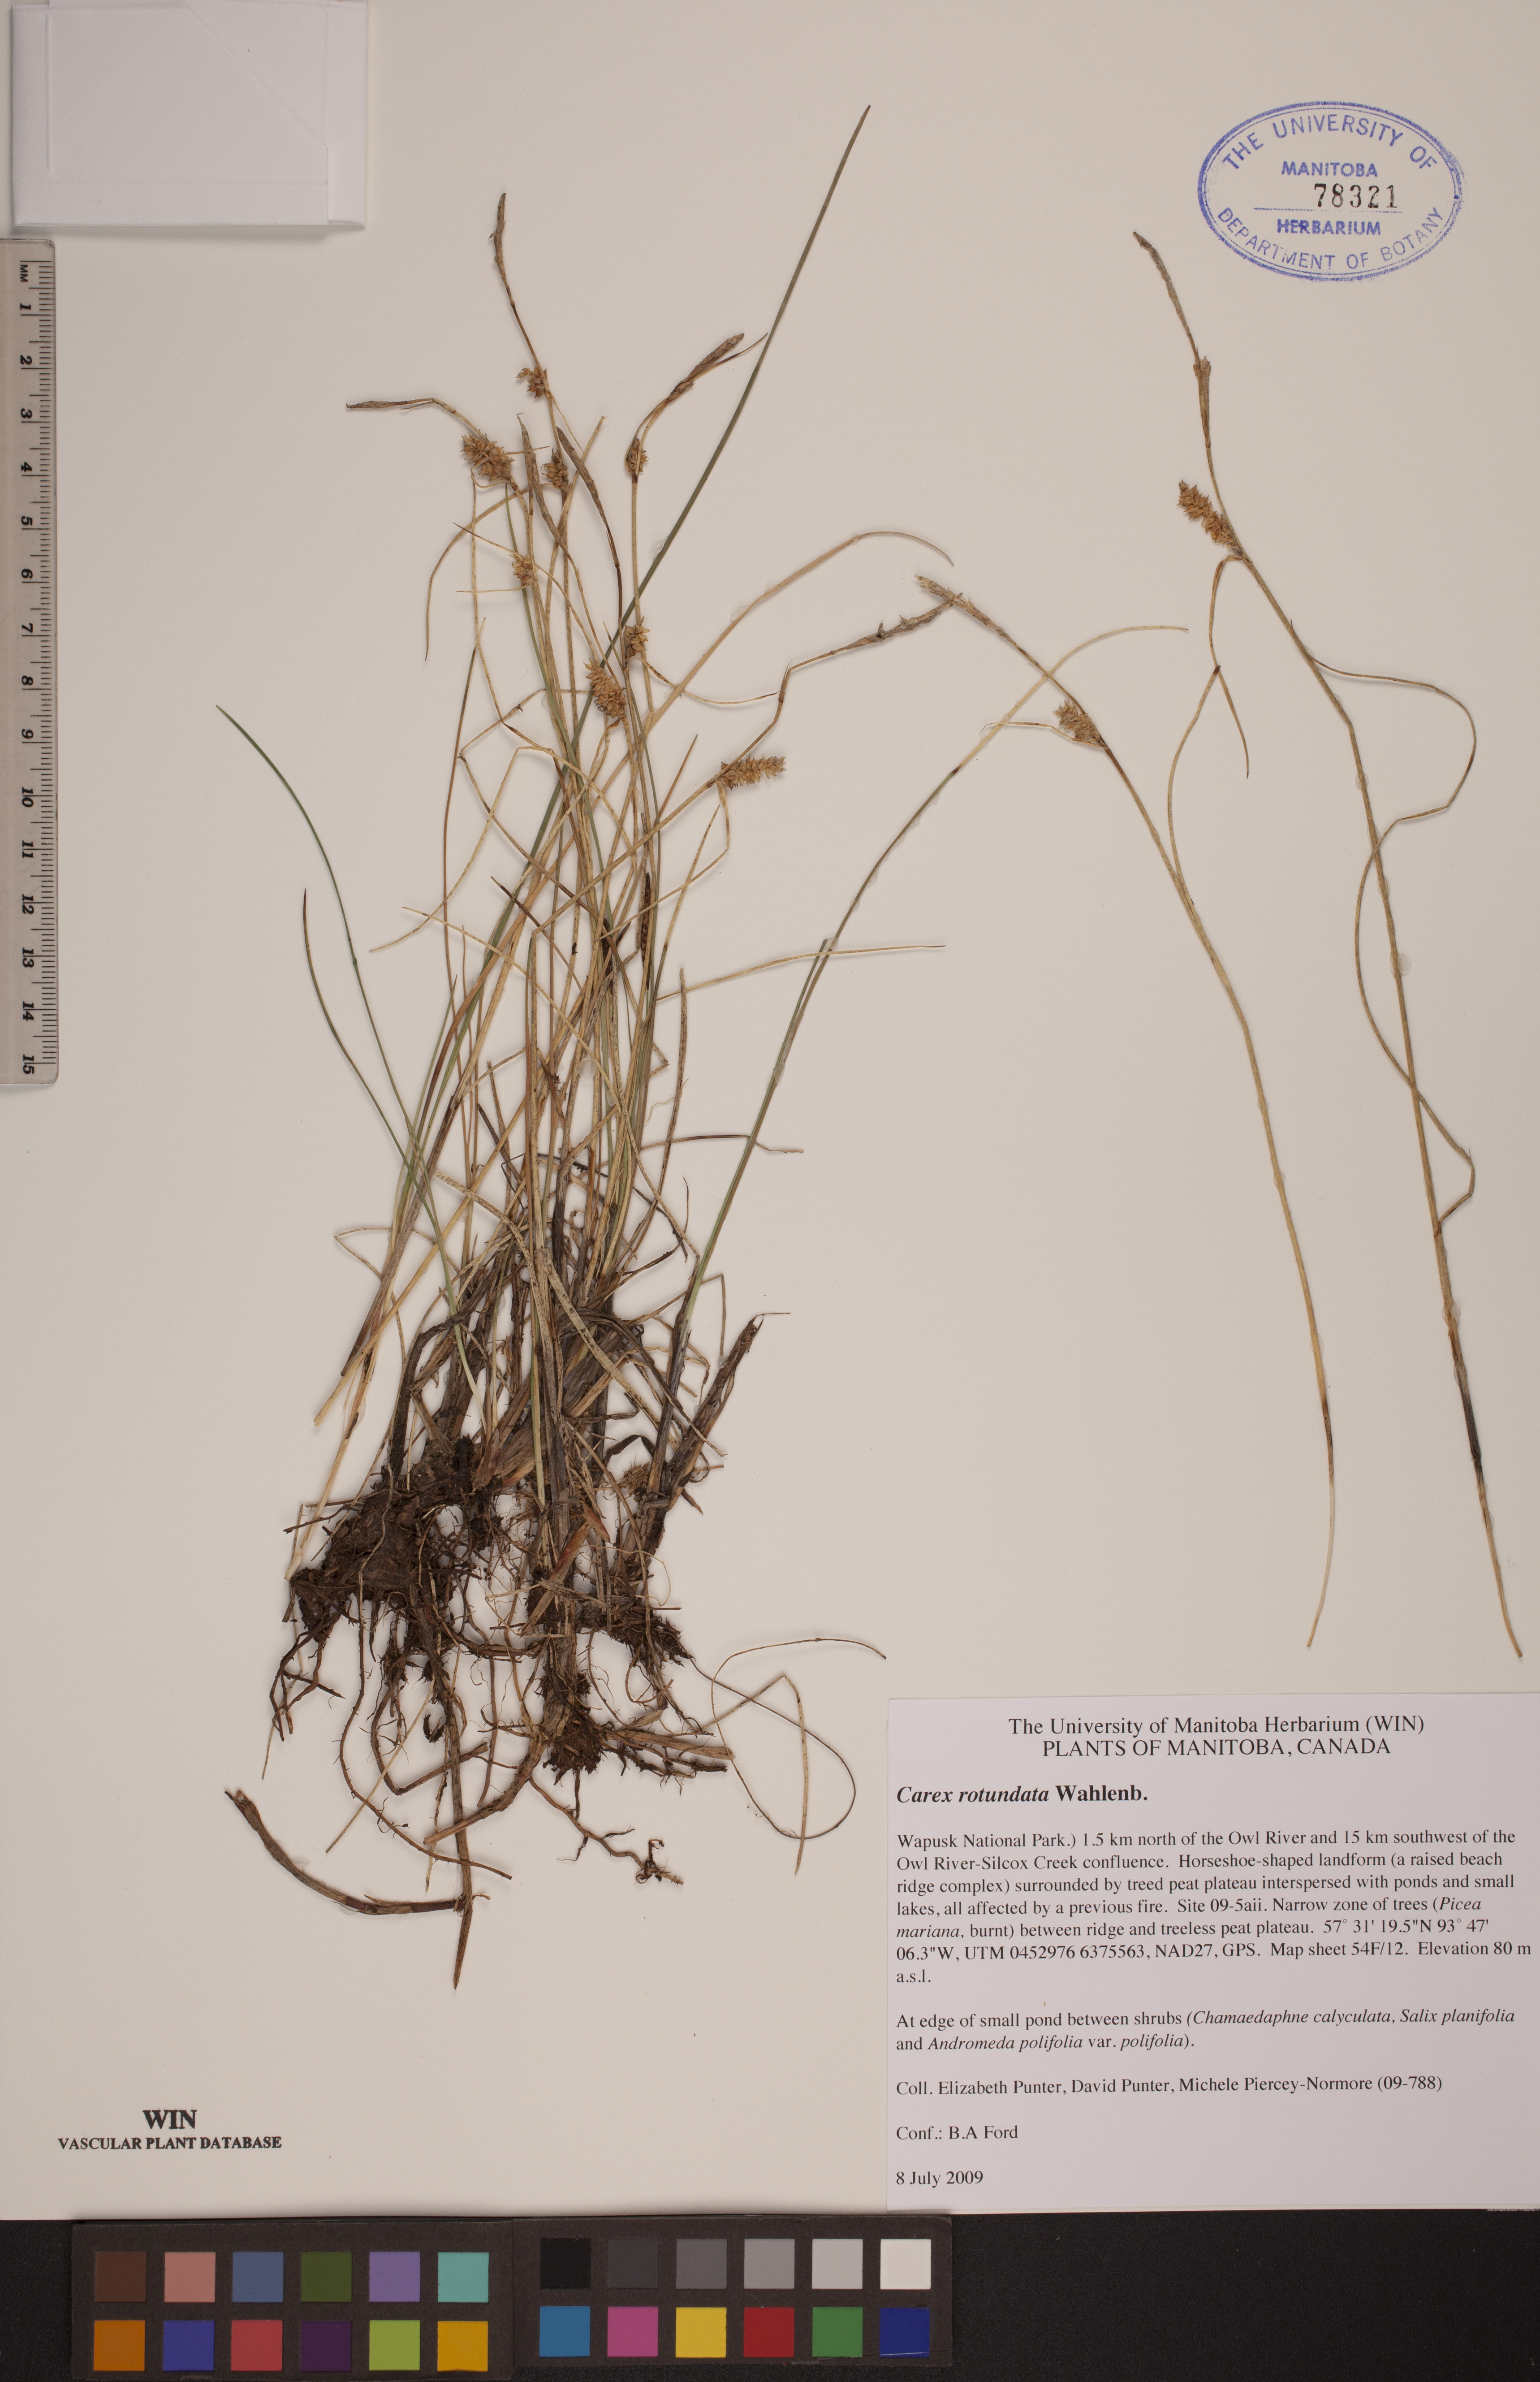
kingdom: Plantae
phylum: Tracheophyta
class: Liliopsida
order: Poales
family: Cyperaceae
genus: Carex
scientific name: Carex rotundata
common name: Round-fruited sedge
